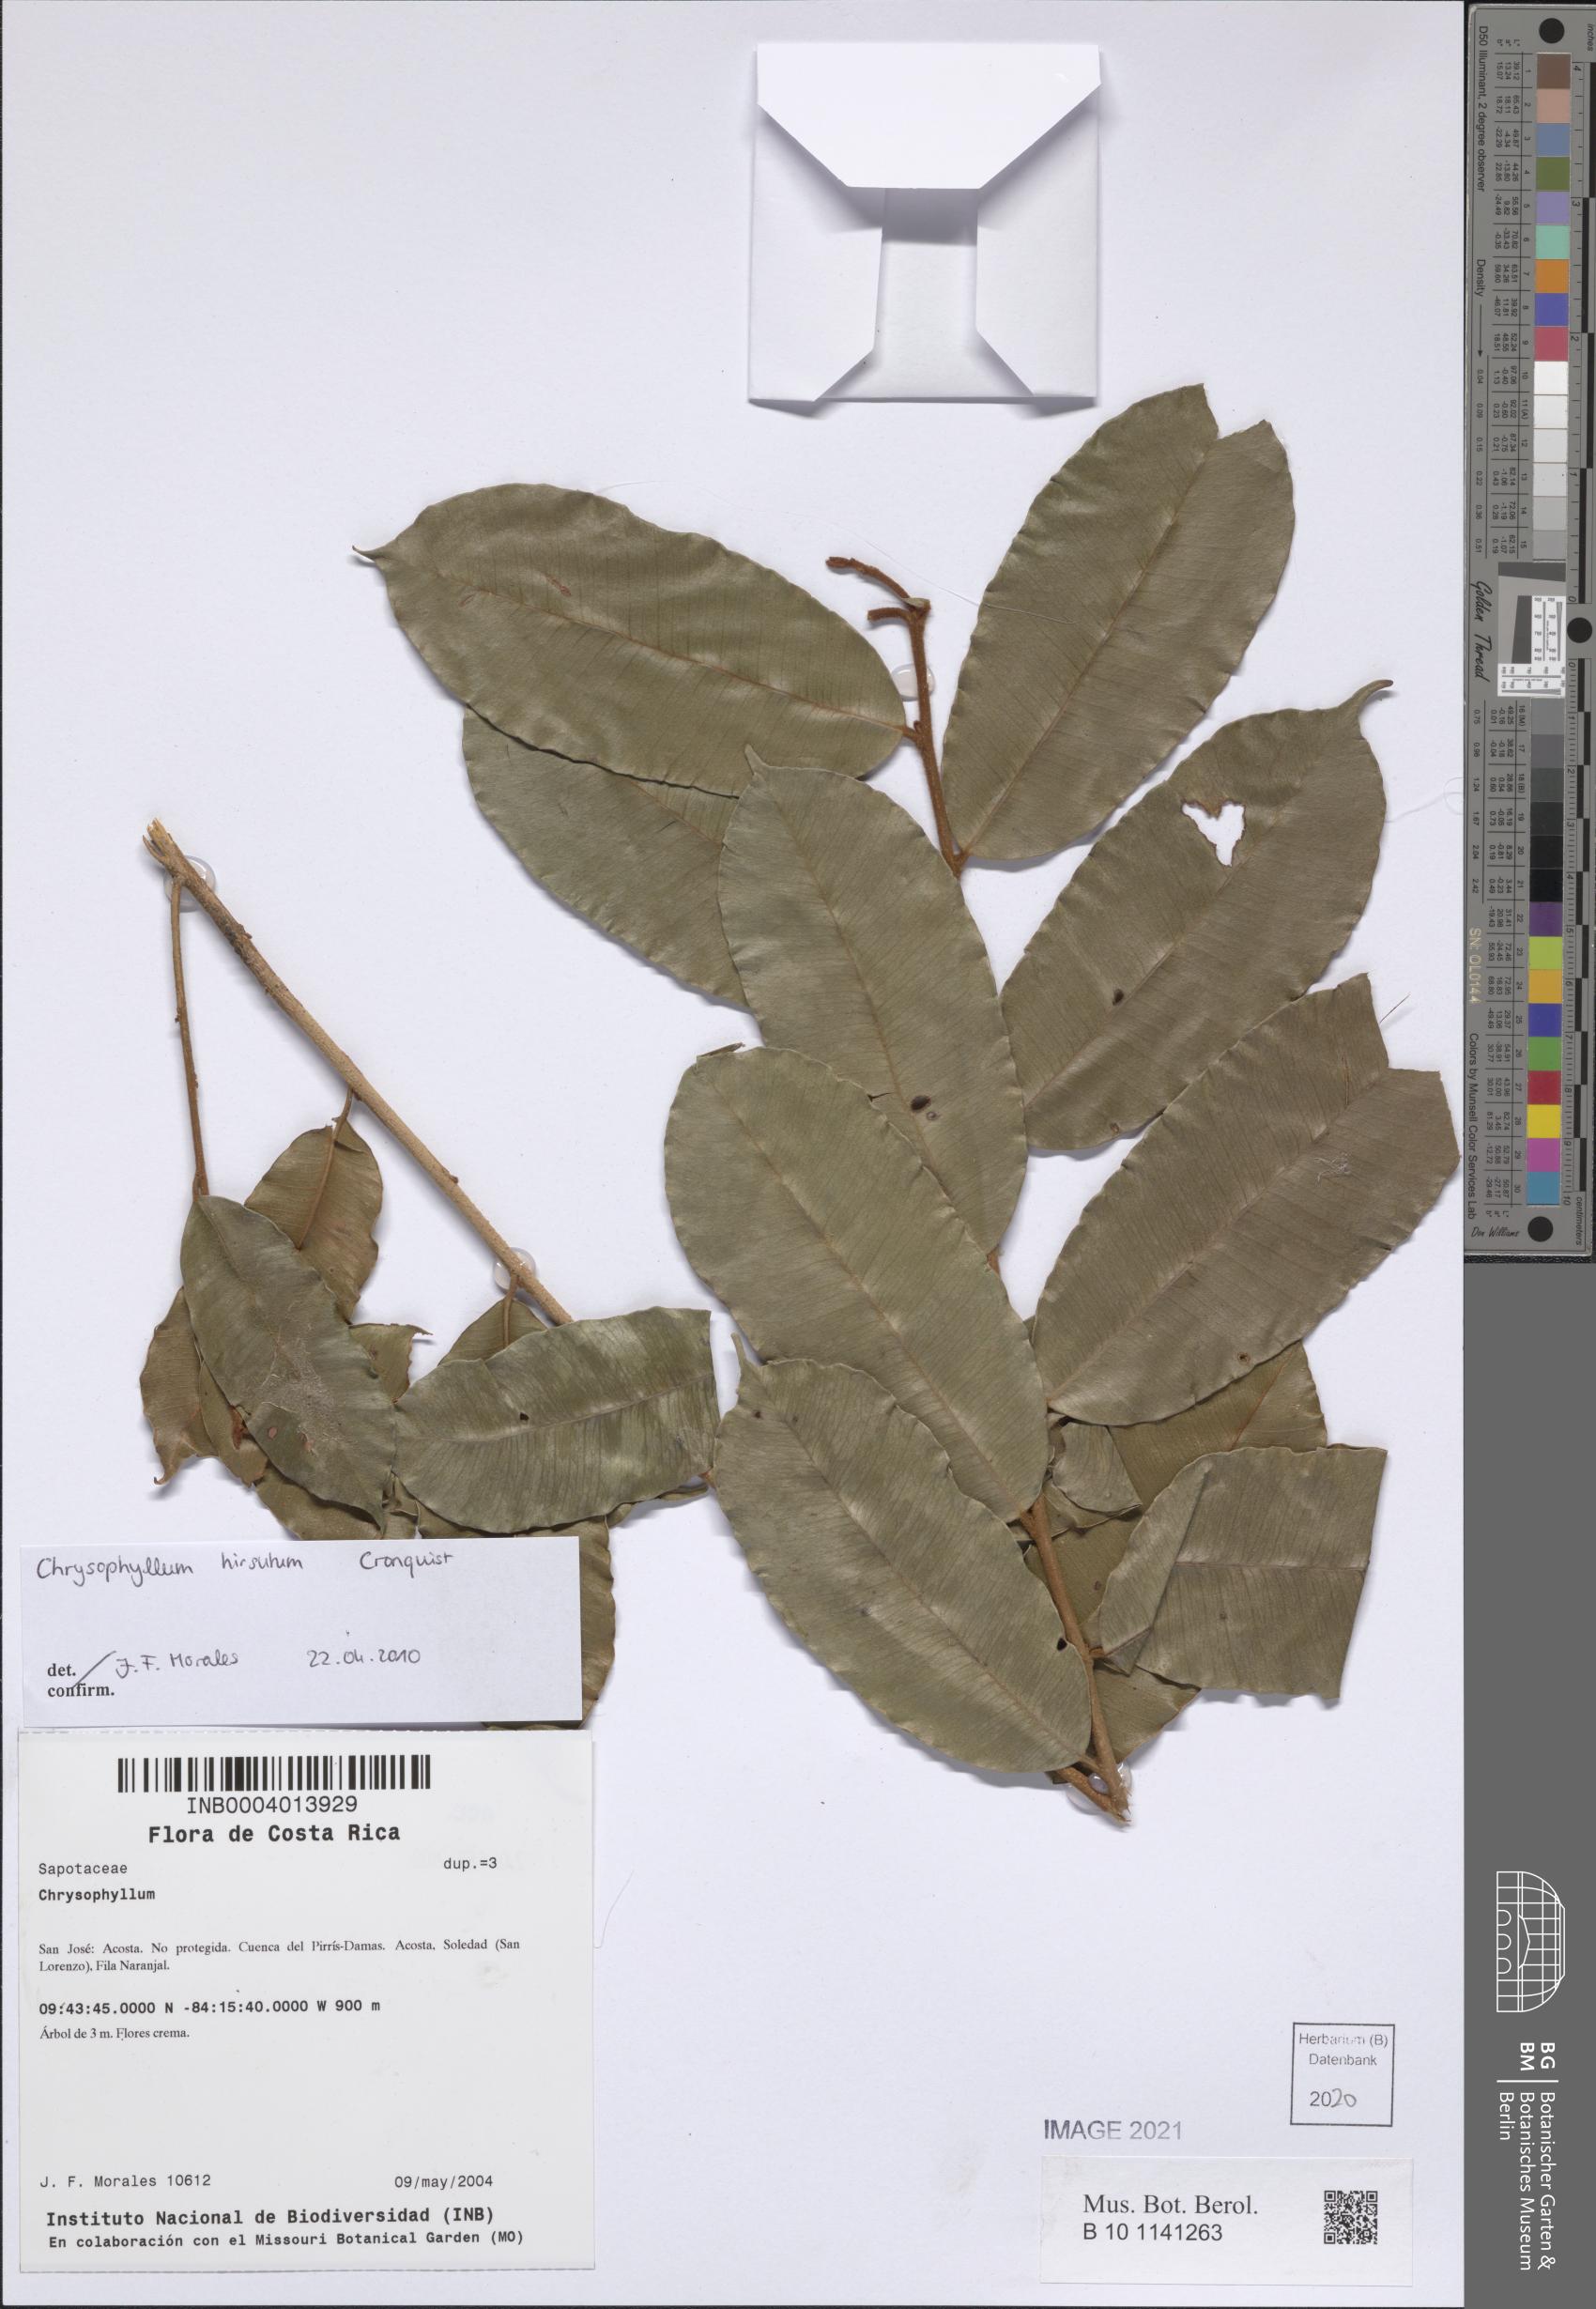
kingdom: Plantae
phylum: Tracheophyta
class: Magnoliopsida
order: Ericales
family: Sapotaceae
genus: Chrysophyllum
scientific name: Chrysophyllum hirsutum
